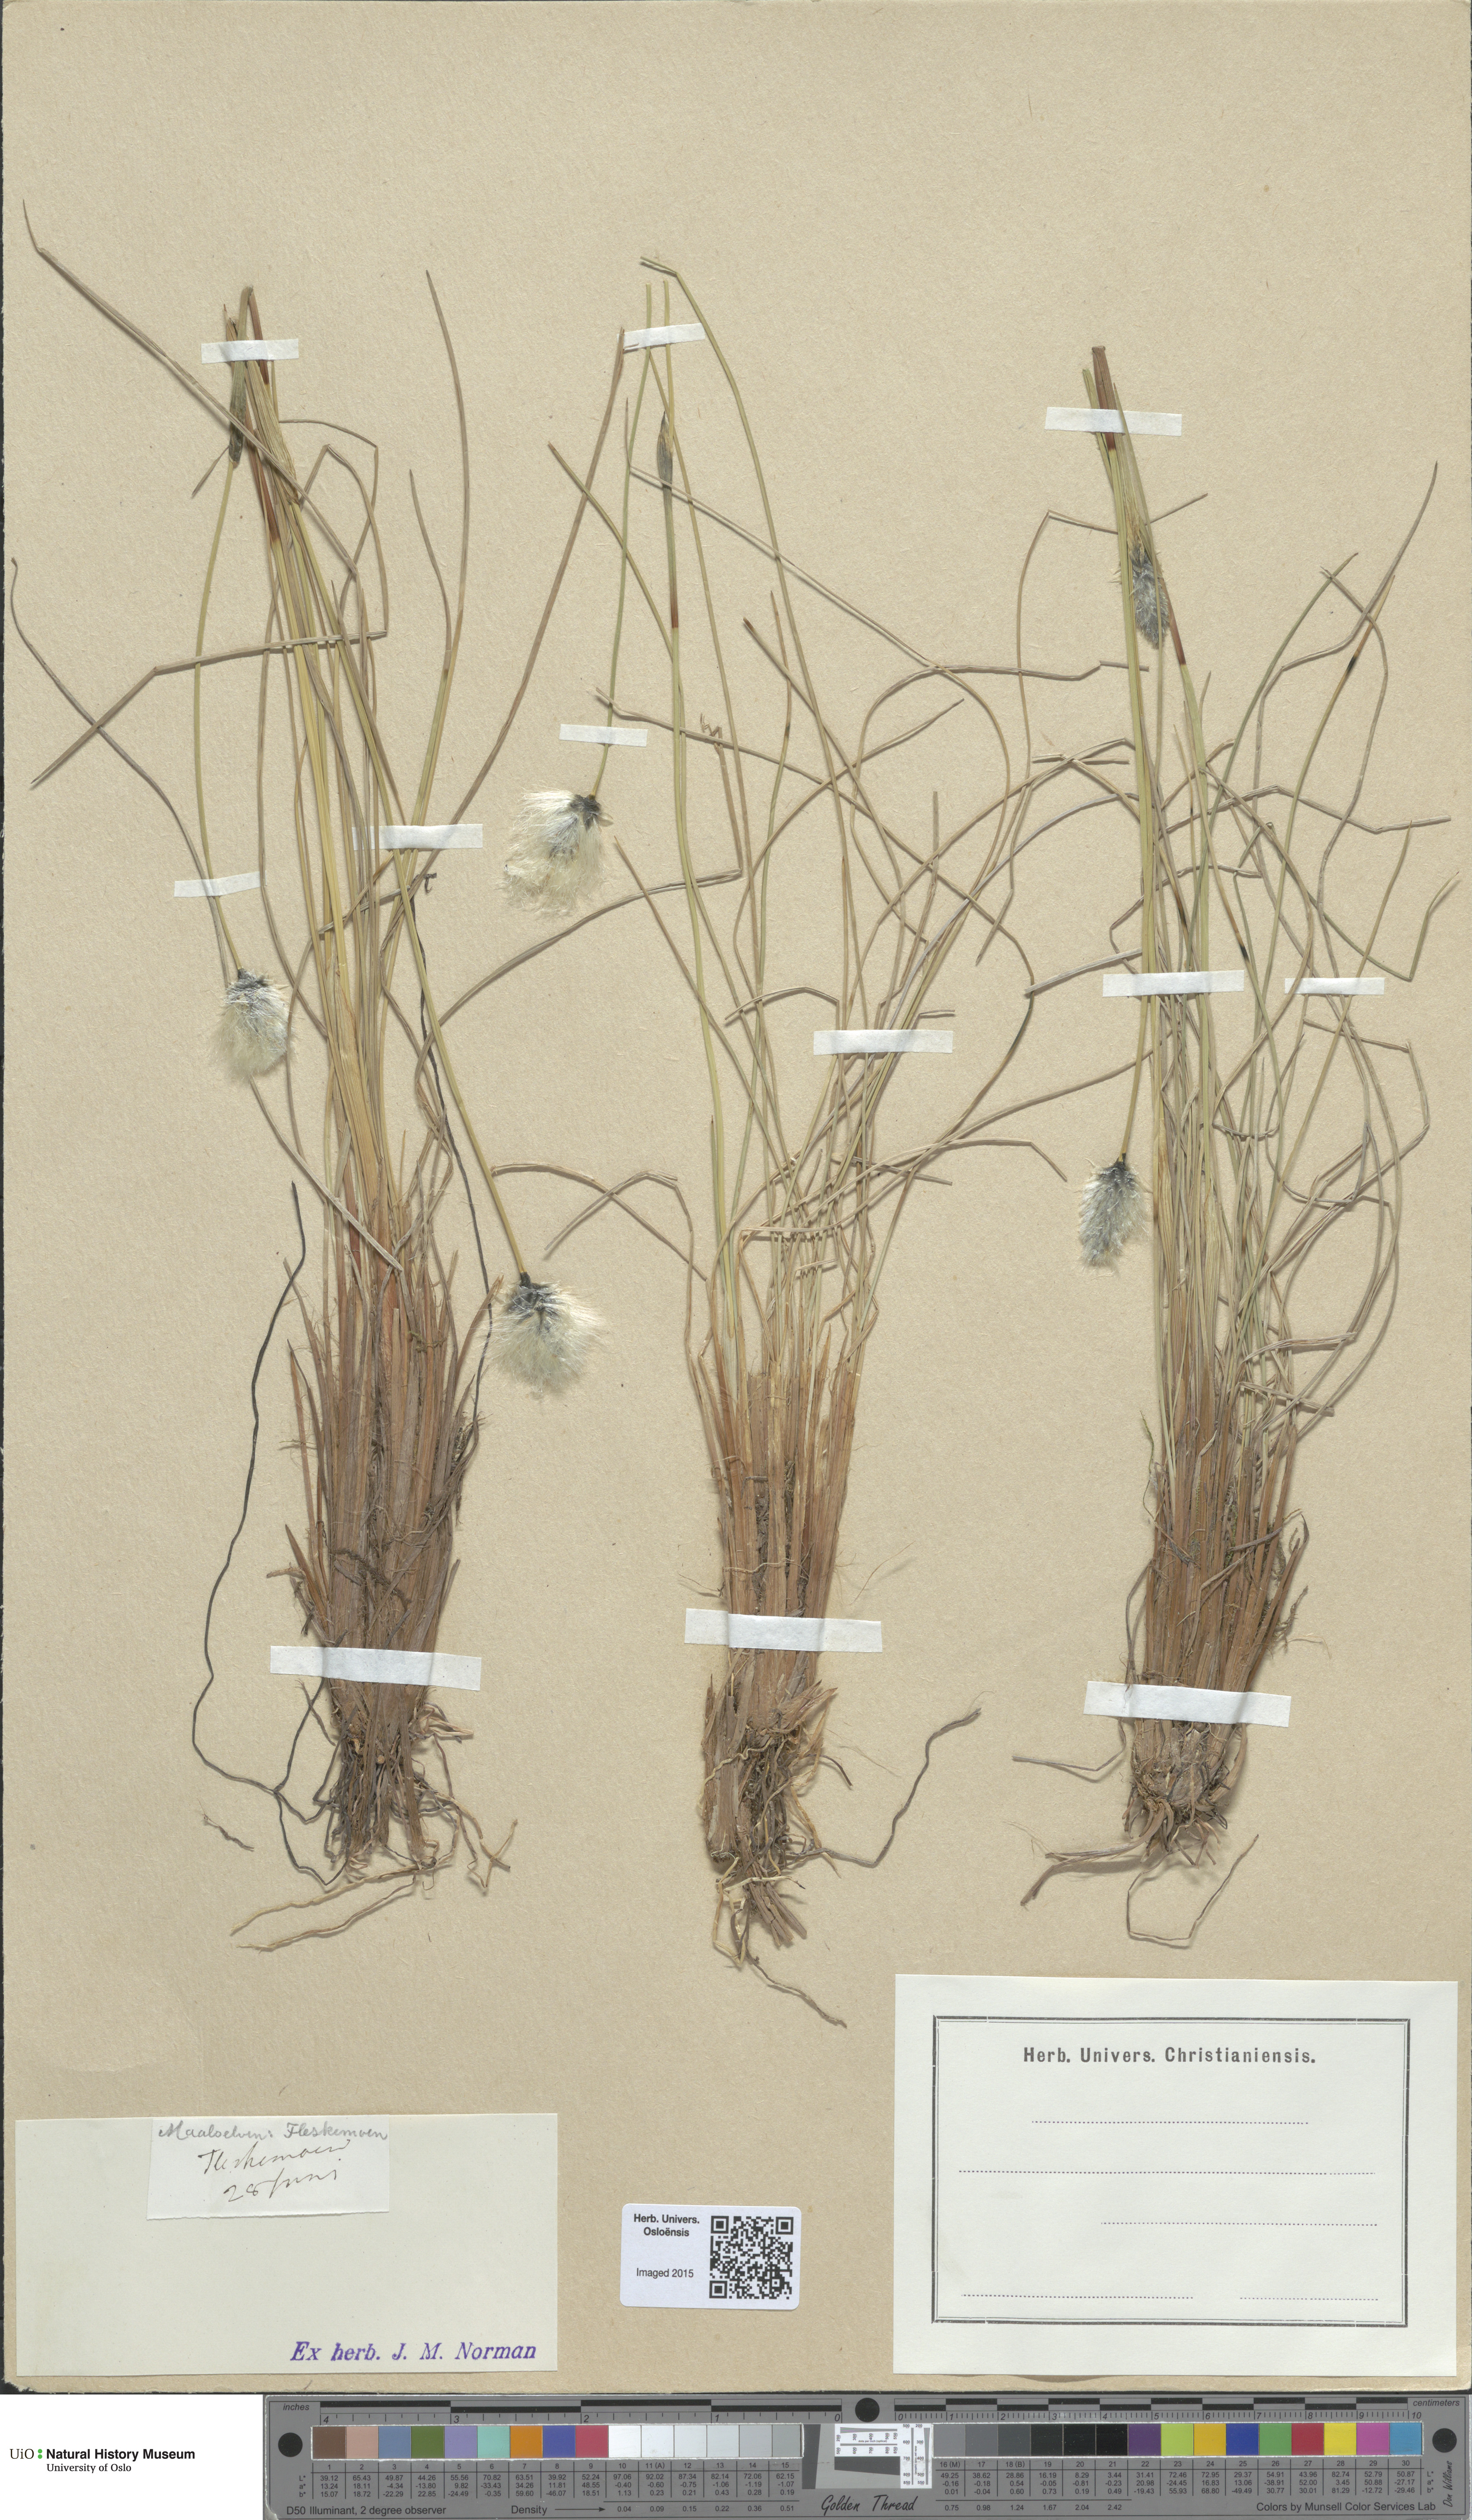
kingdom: Plantae
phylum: Tracheophyta
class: Liliopsida
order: Poales
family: Cyperaceae
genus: Eriophorum
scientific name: Eriophorum vaginatum
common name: Hare's-tail cottongrass
